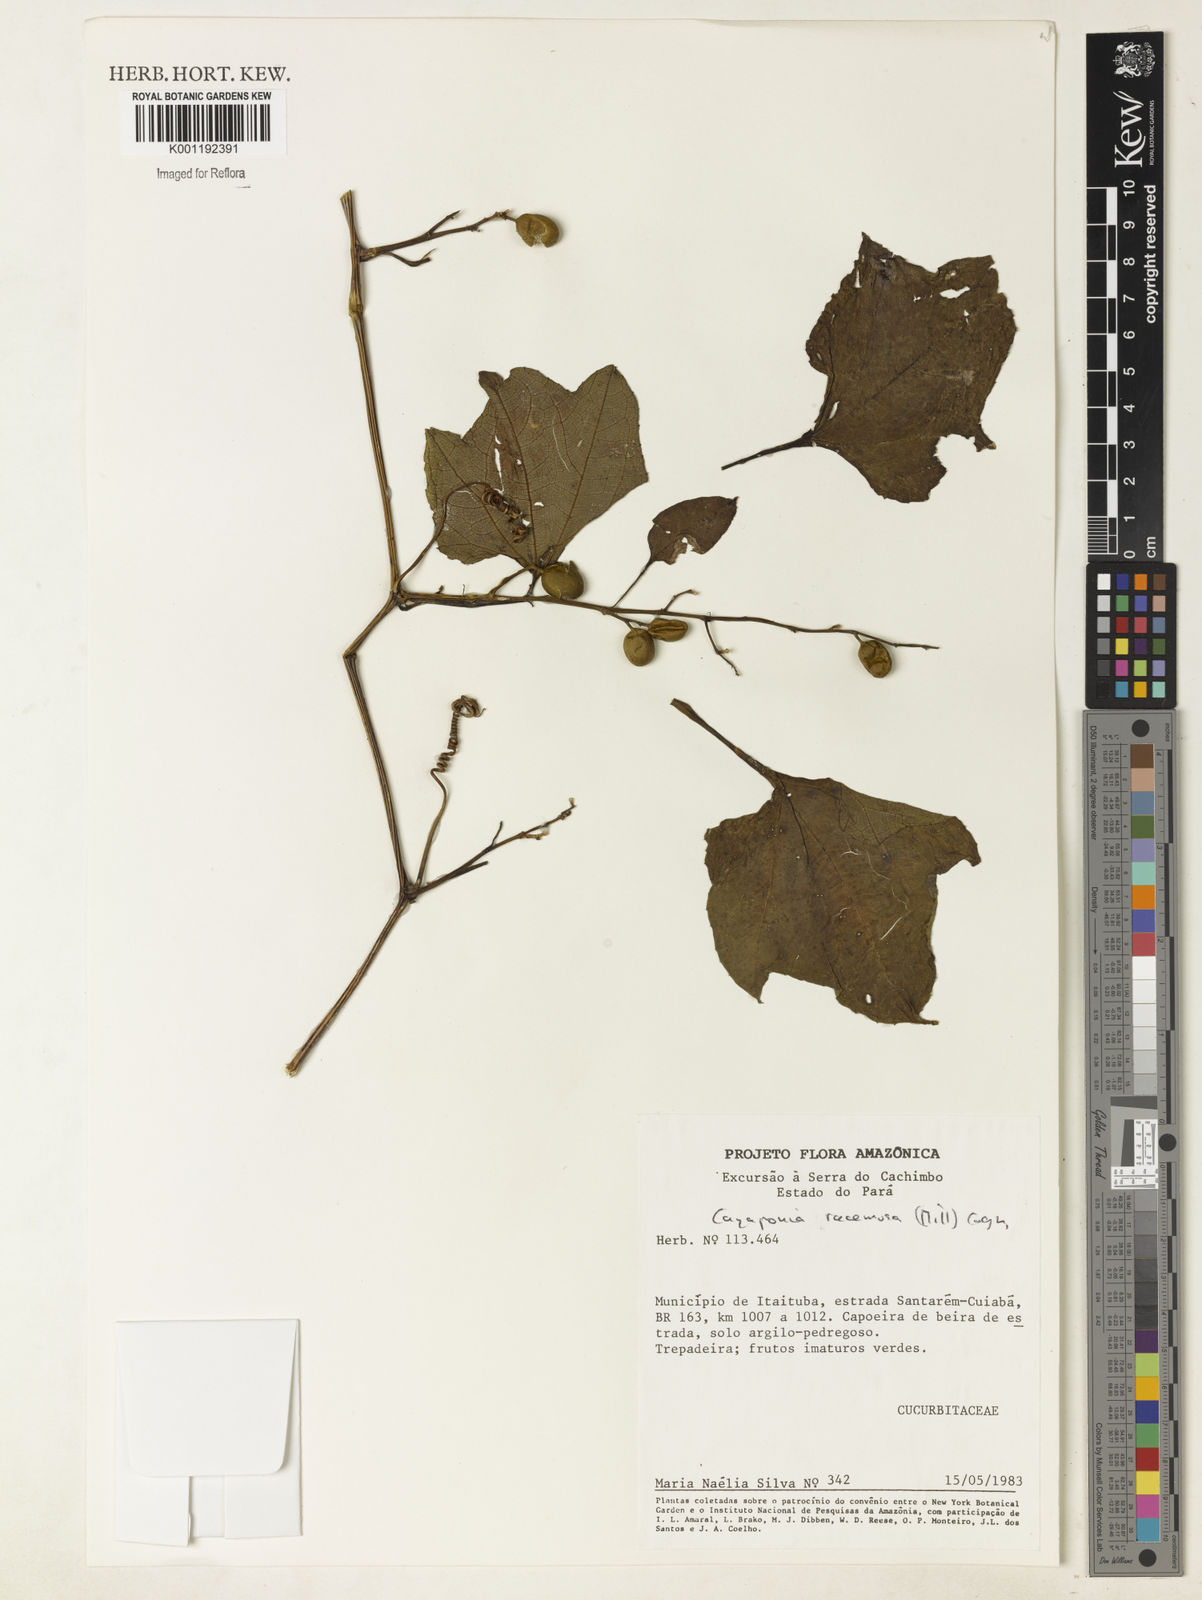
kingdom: Plantae
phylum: Tracheophyta
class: Magnoliopsida
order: Cucurbitales
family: Cucurbitaceae
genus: Cayaponia
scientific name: Cayaponia racemosa
